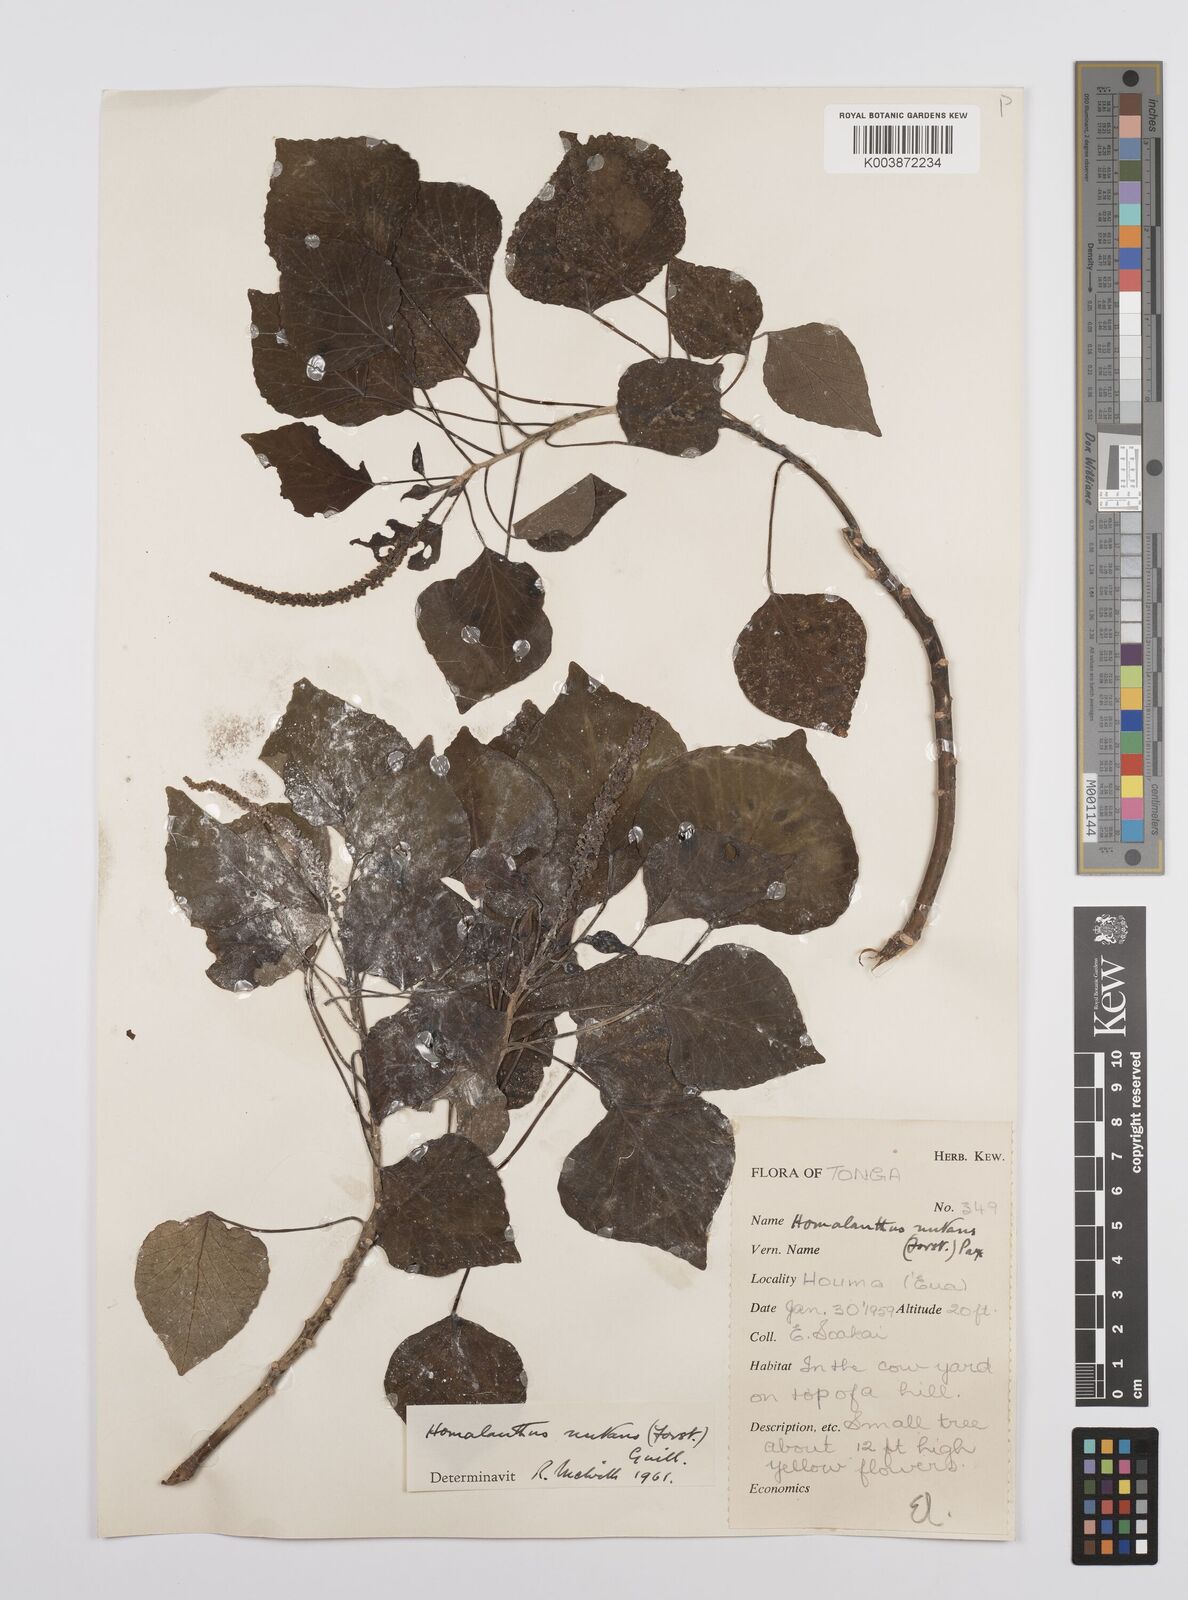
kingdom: Plantae
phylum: Tracheophyta
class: Magnoliopsida
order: Malpighiales
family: Euphorbiaceae
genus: Homalanthus
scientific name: Homalanthus nutans
